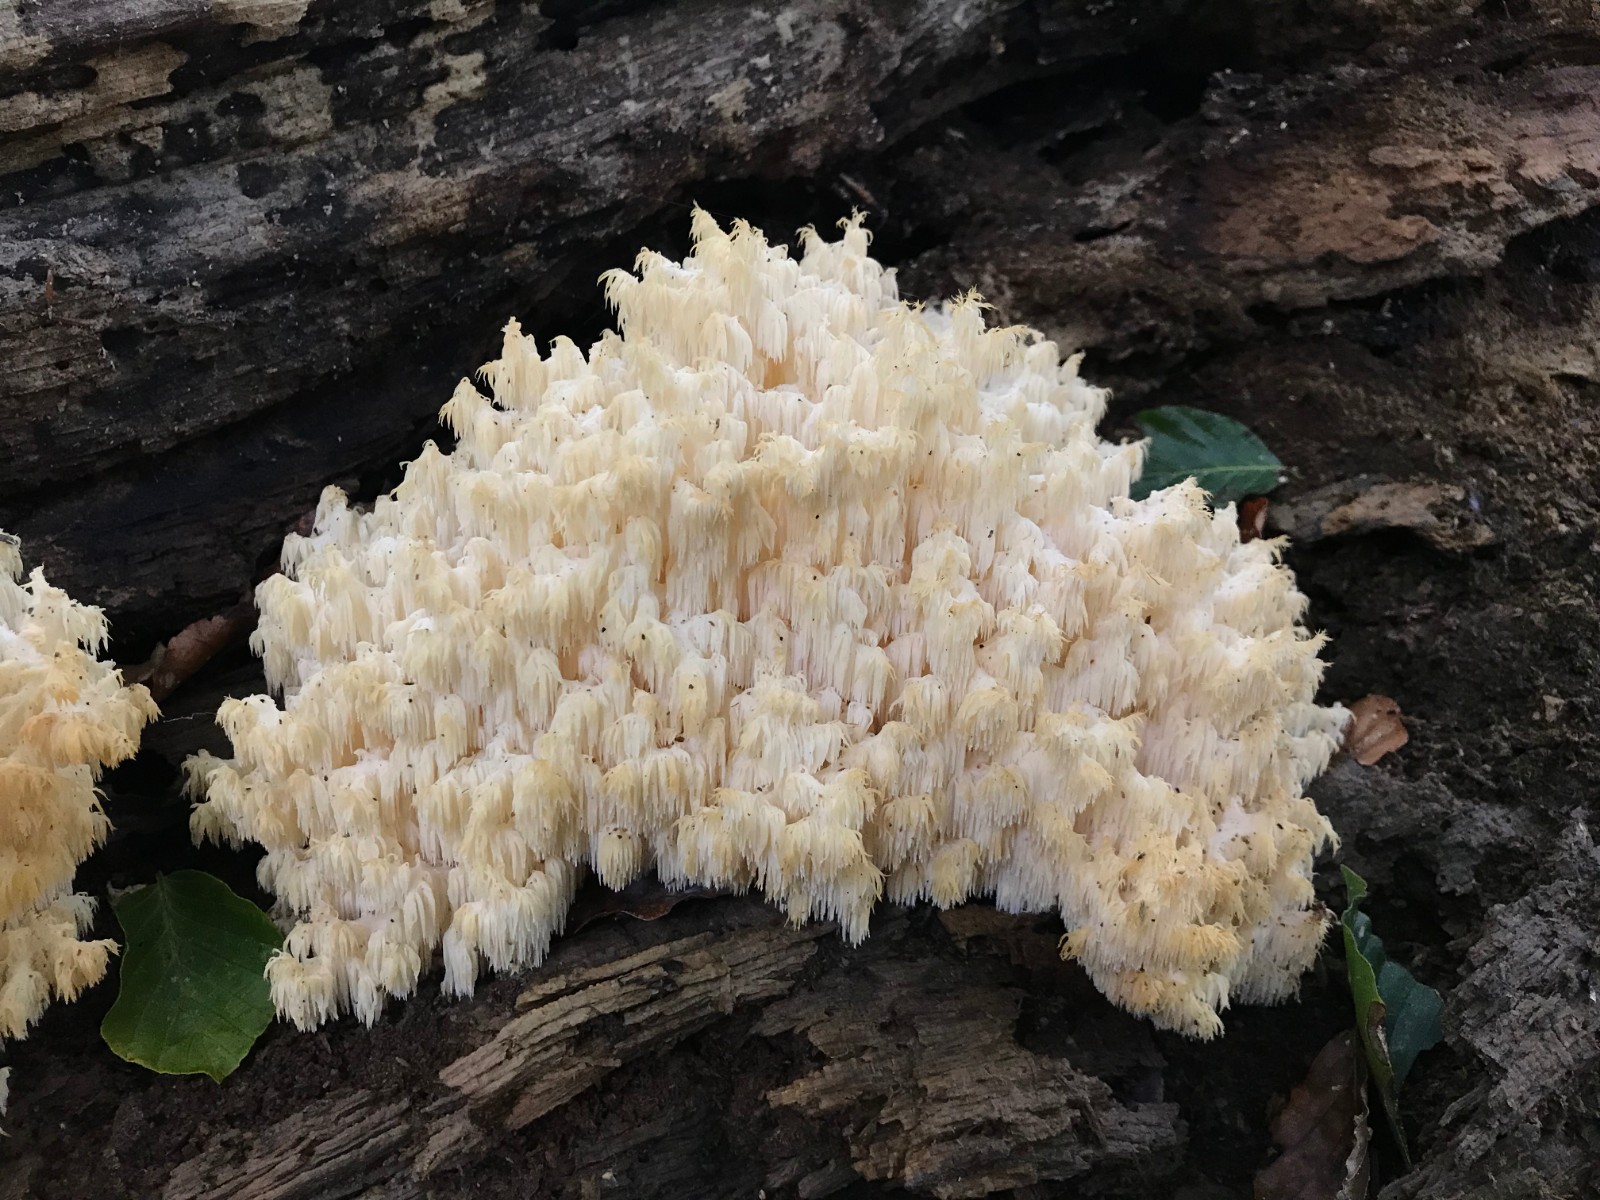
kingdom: Fungi
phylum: Basidiomycota
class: Agaricomycetes
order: Russulales
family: Hericiaceae
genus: Hericium
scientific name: Hericium coralloides
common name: koralpigsvamp
